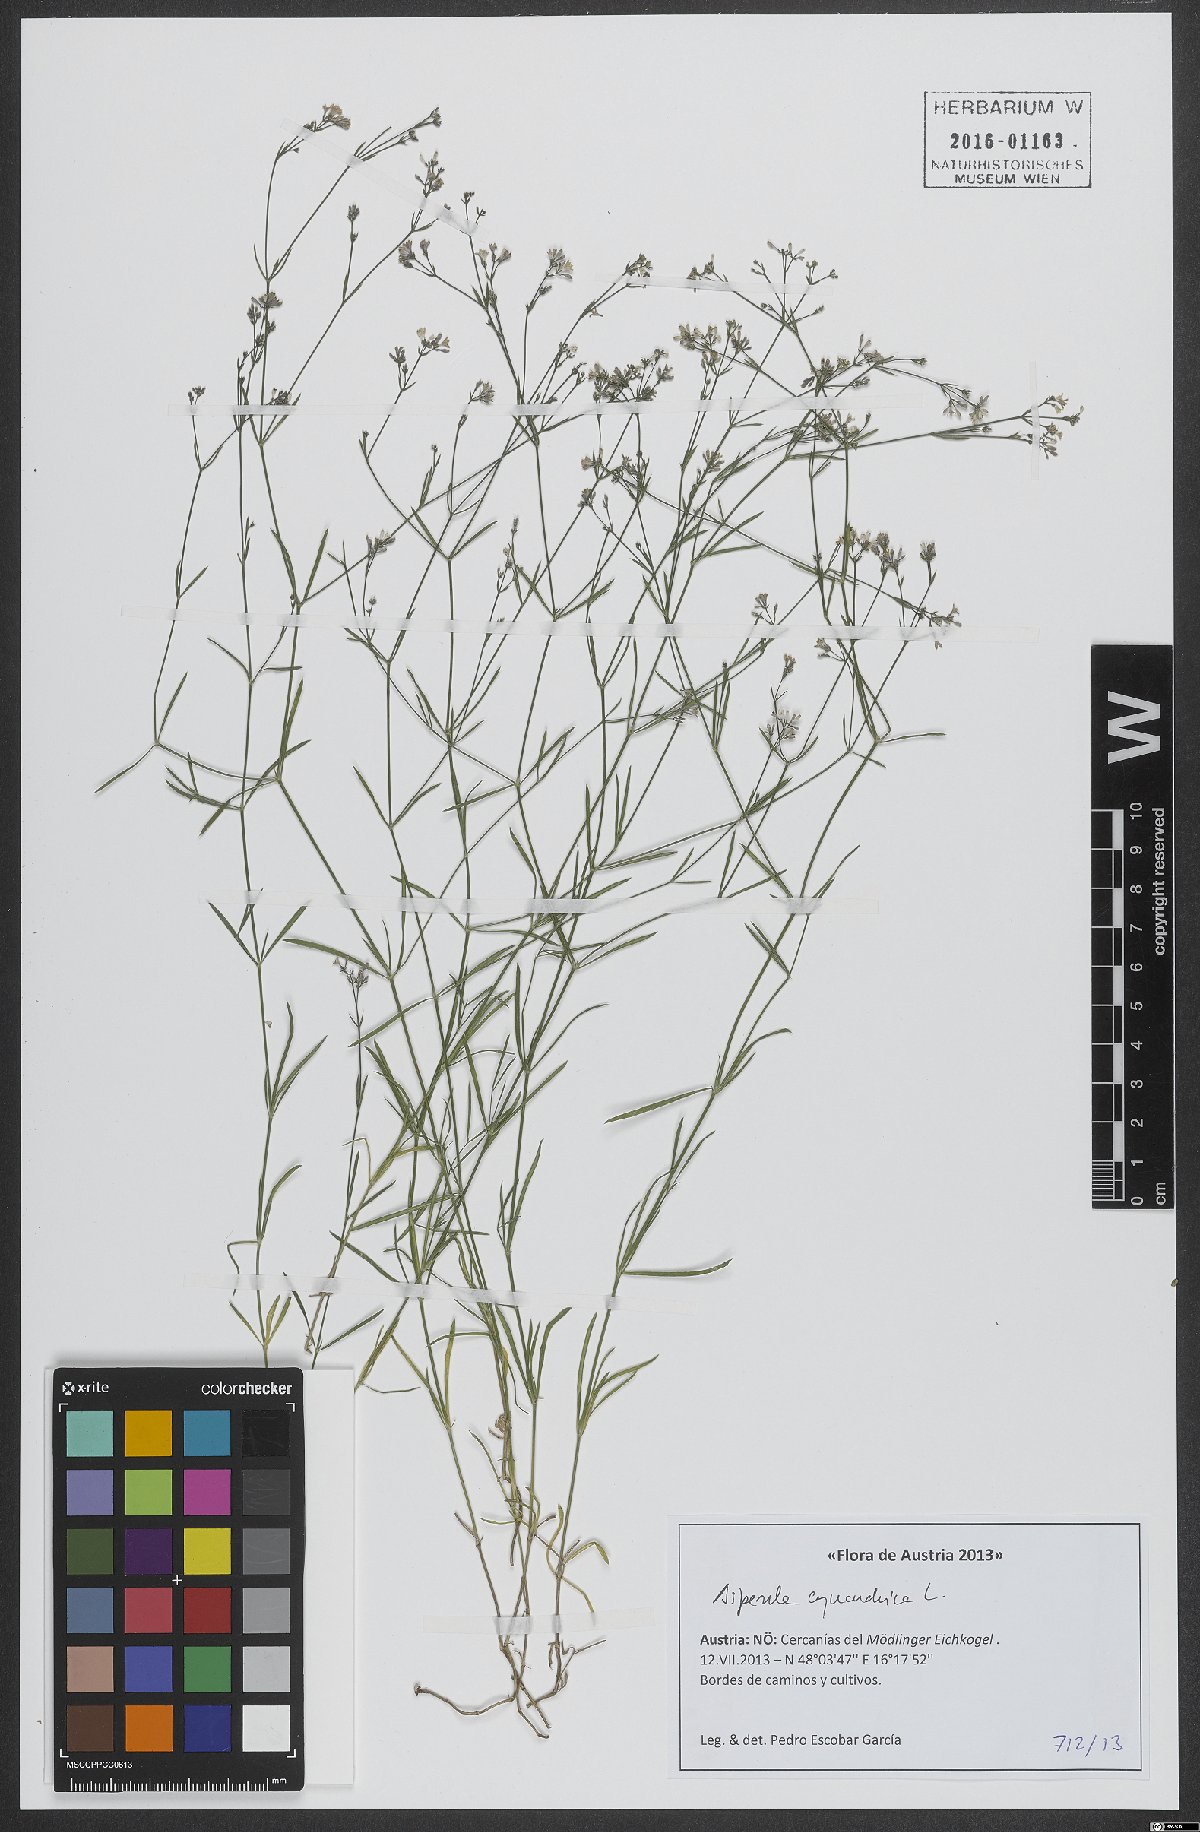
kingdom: Plantae
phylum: Tracheophyta
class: Magnoliopsida
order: Gentianales
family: Rubiaceae
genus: Cynanchica
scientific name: Cynanchica pyrenaica
